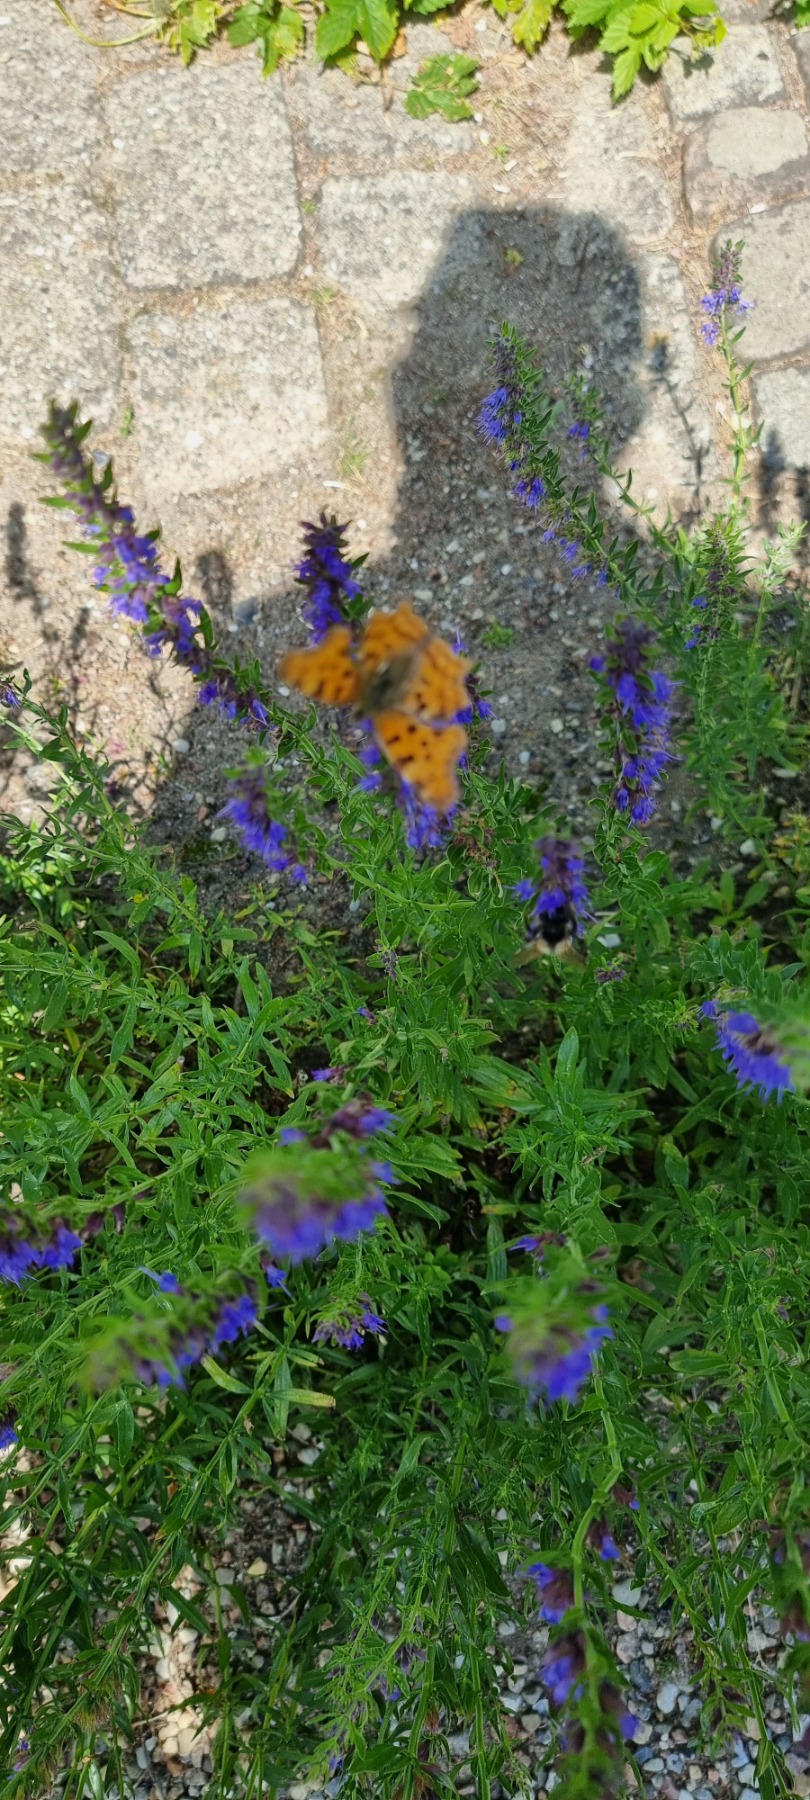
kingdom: Animalia
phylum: Arthropoda
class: Insecta
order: Lepidoptera
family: Nymphalidae
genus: Polygonia
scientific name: Polygonia c-album
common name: Det hvide C
